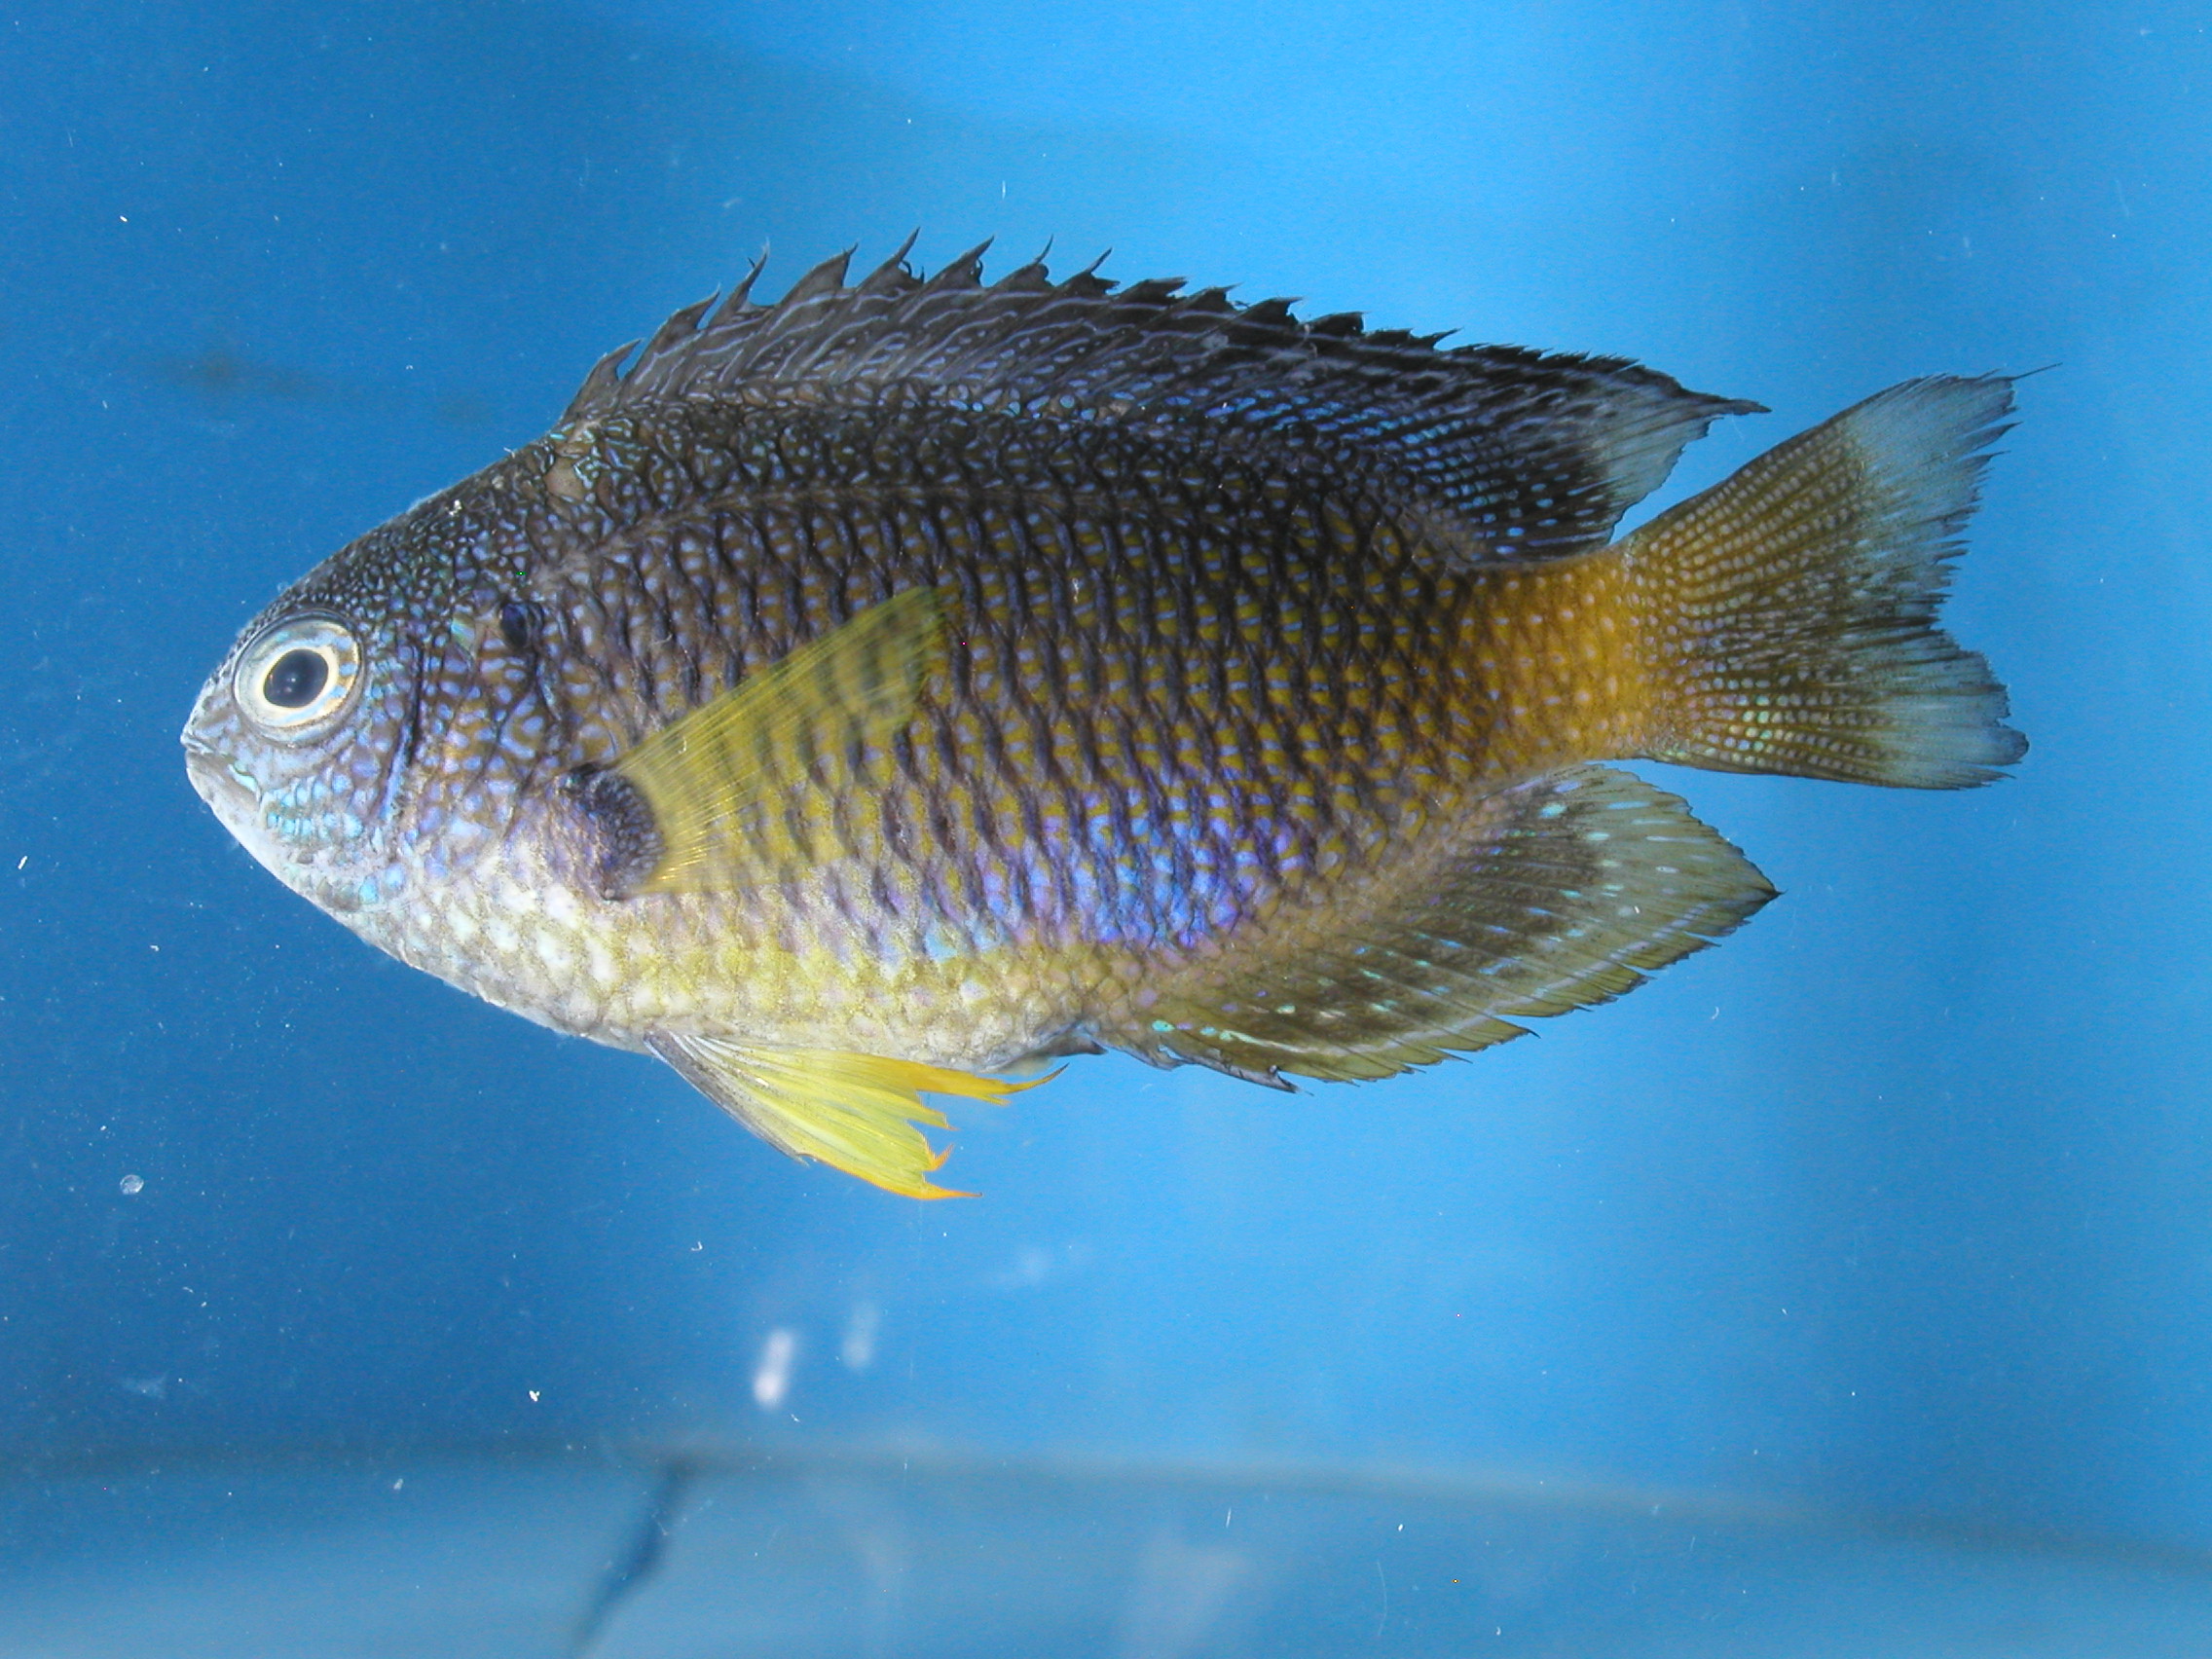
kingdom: Animalia
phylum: Chordata
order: Perciformes
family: Pomacentridae
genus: Pomacentrus
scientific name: Pomacentrus caeruleopunctatus
